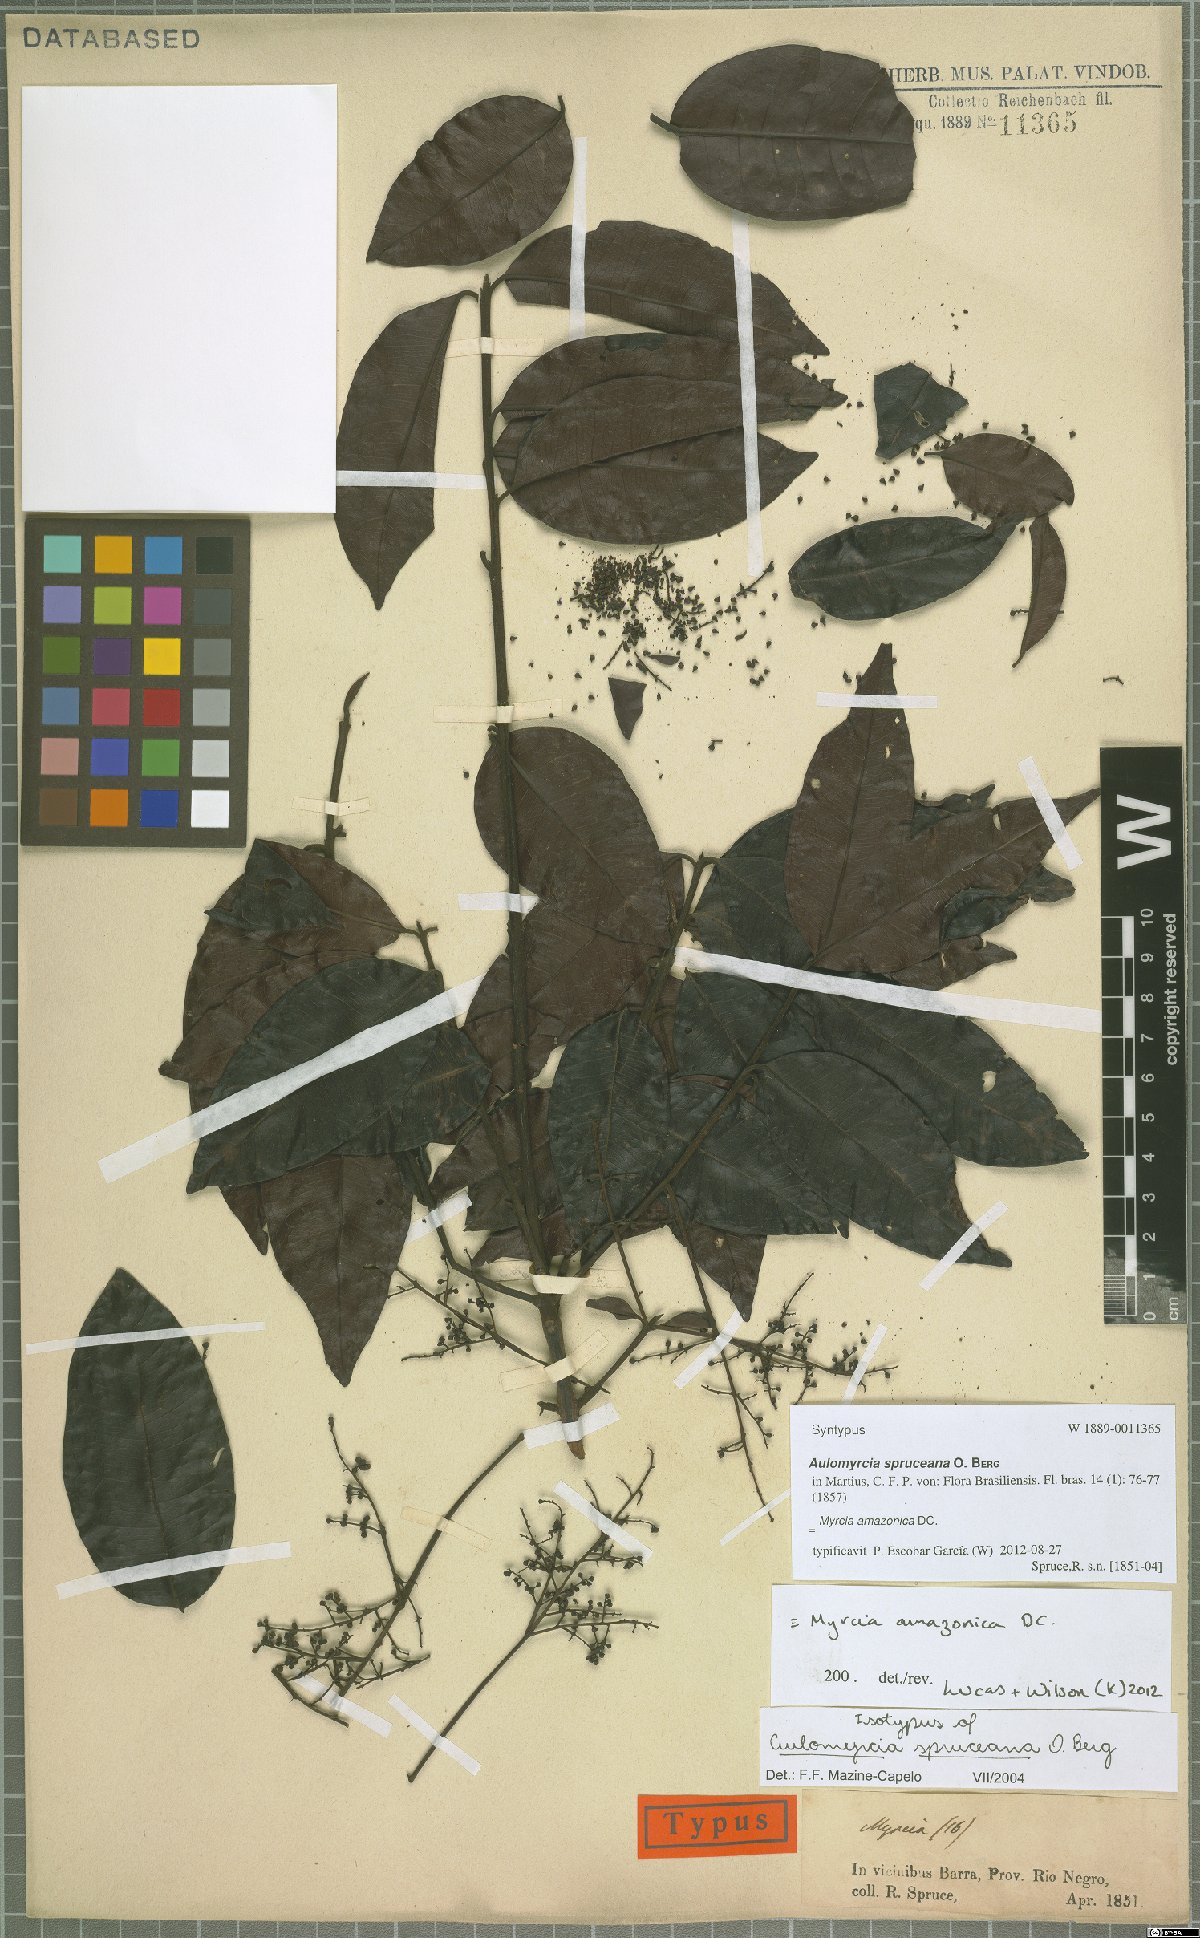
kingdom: Plantae
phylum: Tracheophyta
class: Magnoliopsida
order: Myrtales
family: Myrtaceae
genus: Myrcia
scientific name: Myrcia amazonica
